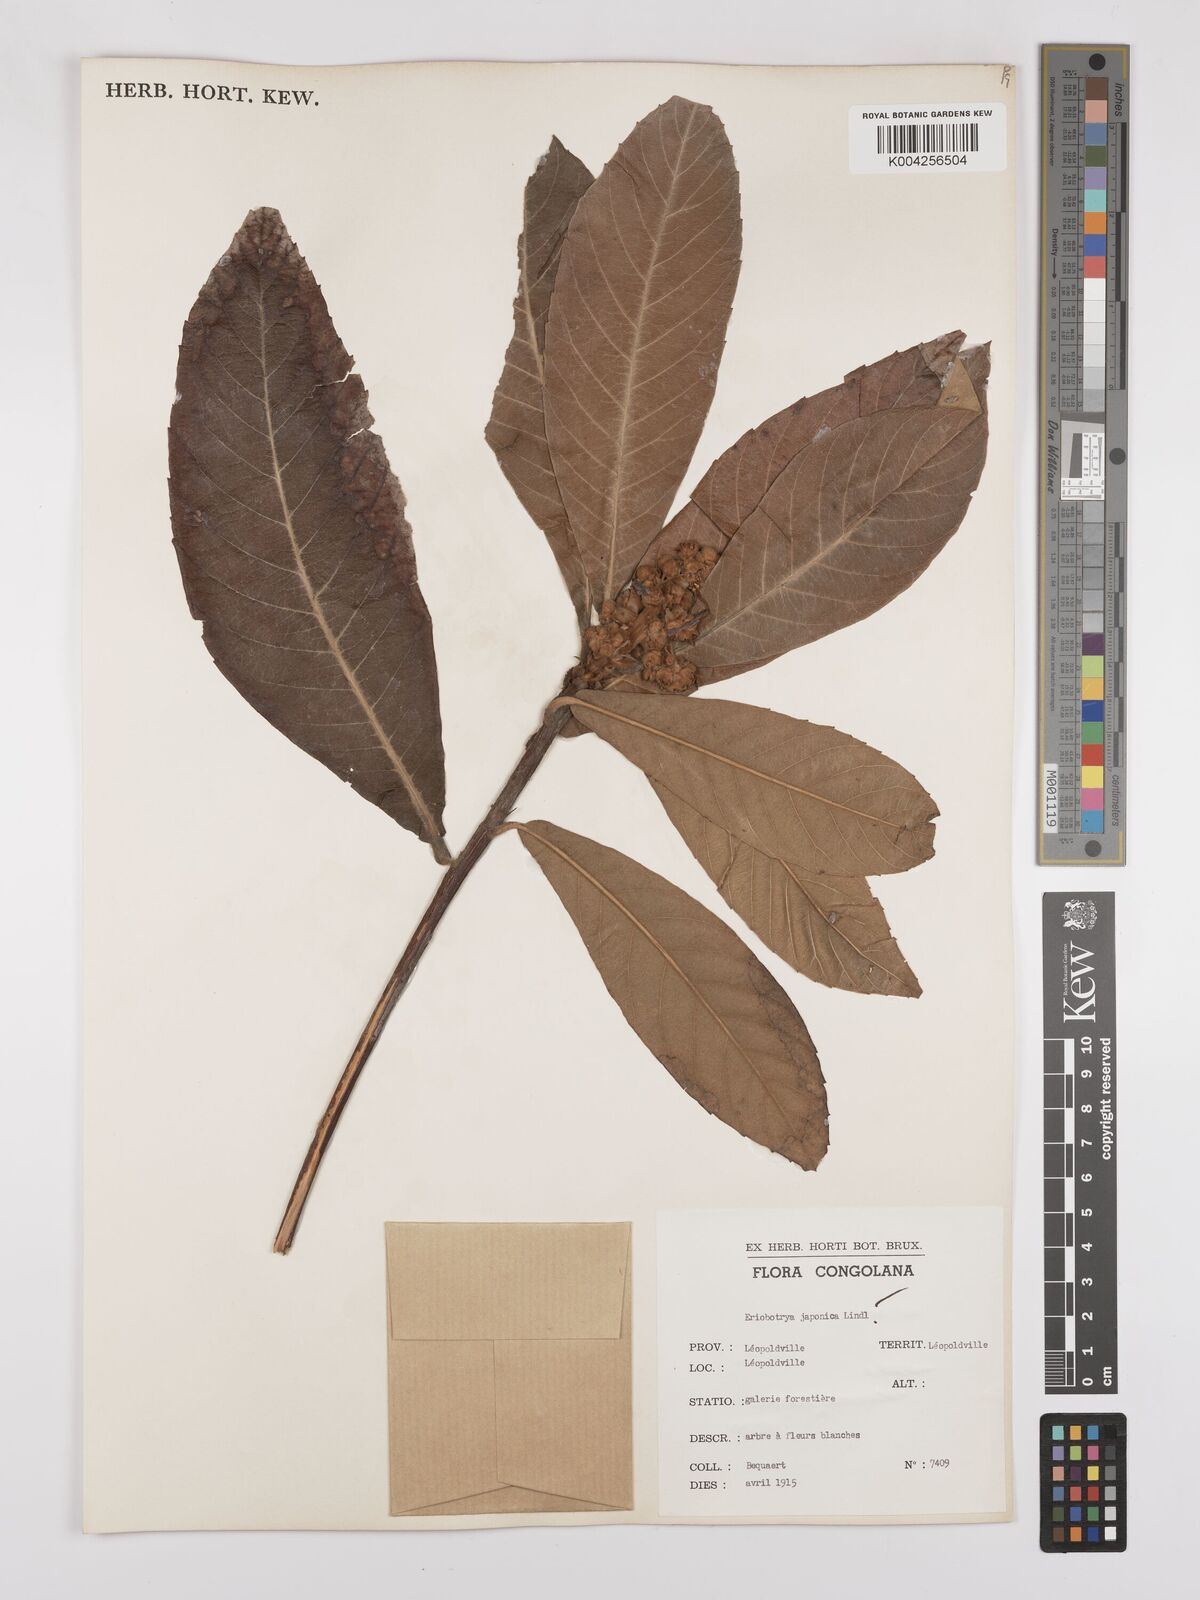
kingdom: Plantae
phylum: Tracheophyta
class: Magnoliopsida
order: Rosales
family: Rosaceae
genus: Rhaphiolepis
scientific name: Rhaphiolepis bibas
